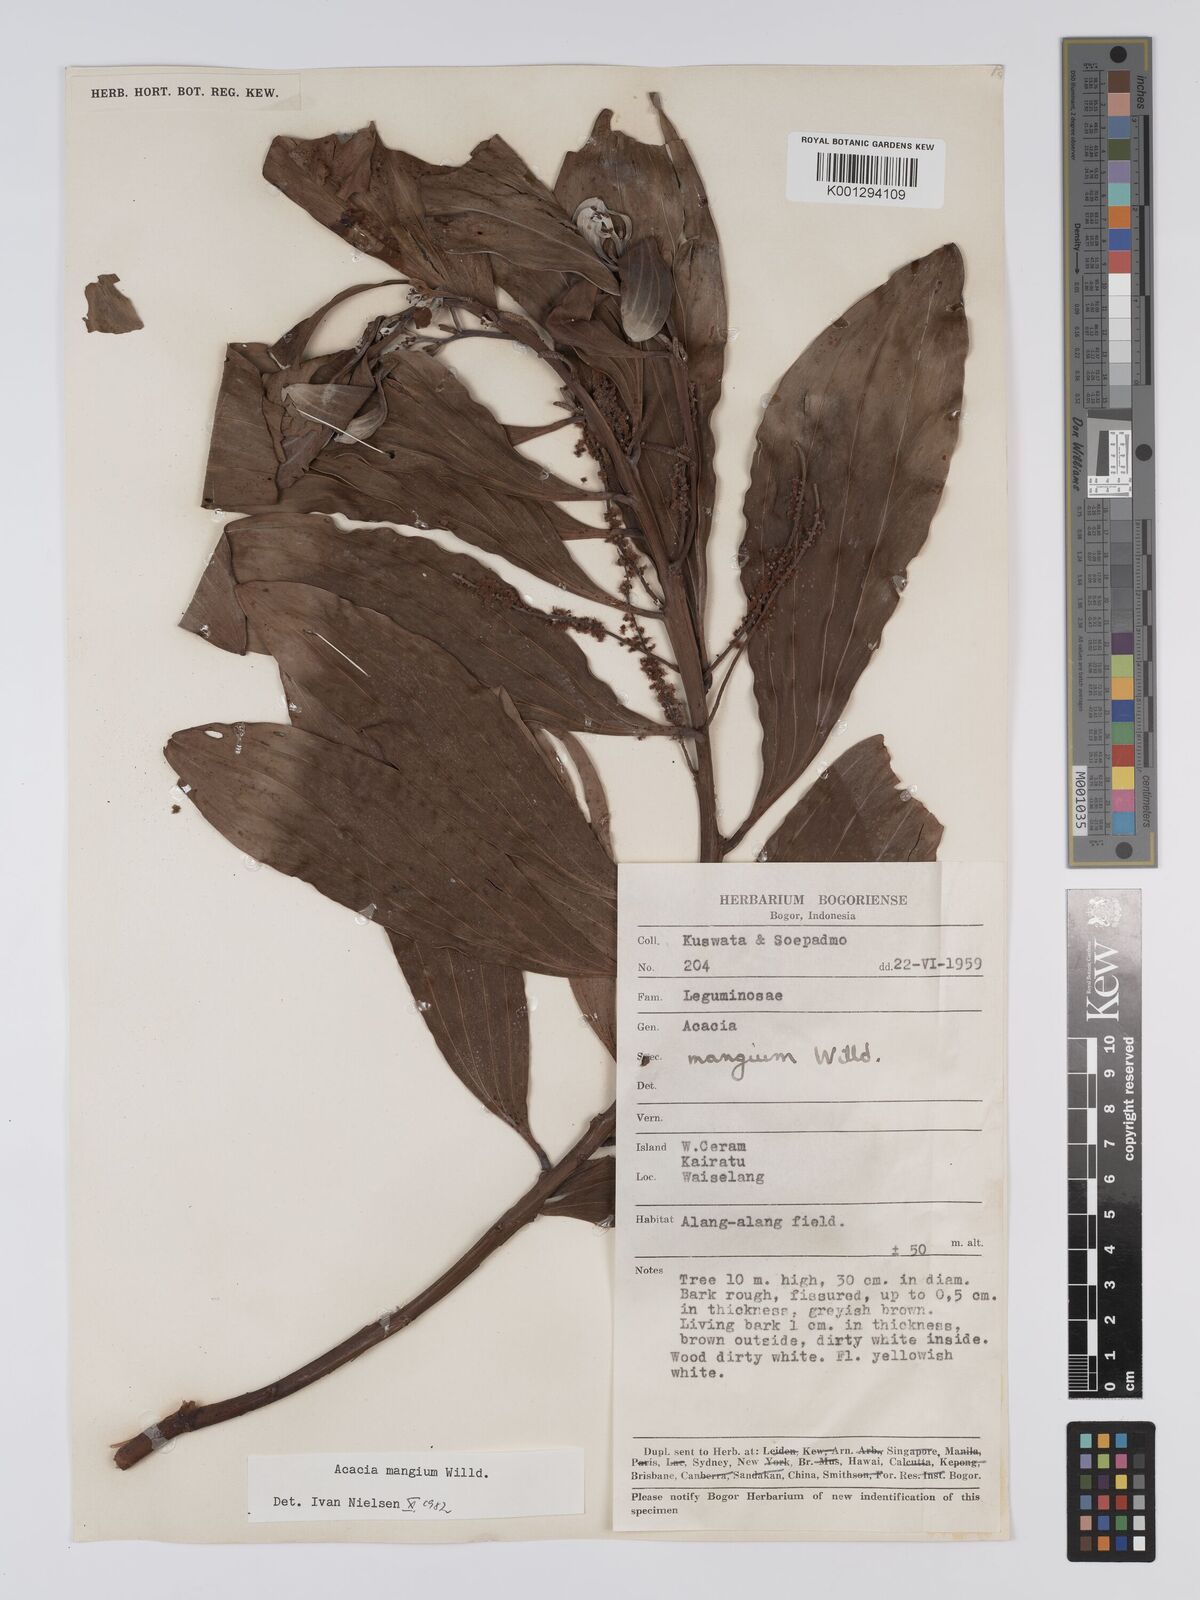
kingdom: Plantae
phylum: Tracheophyta
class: Magnoliopsida
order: Fabales
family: Fabaceae
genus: Acacia
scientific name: Acacia
